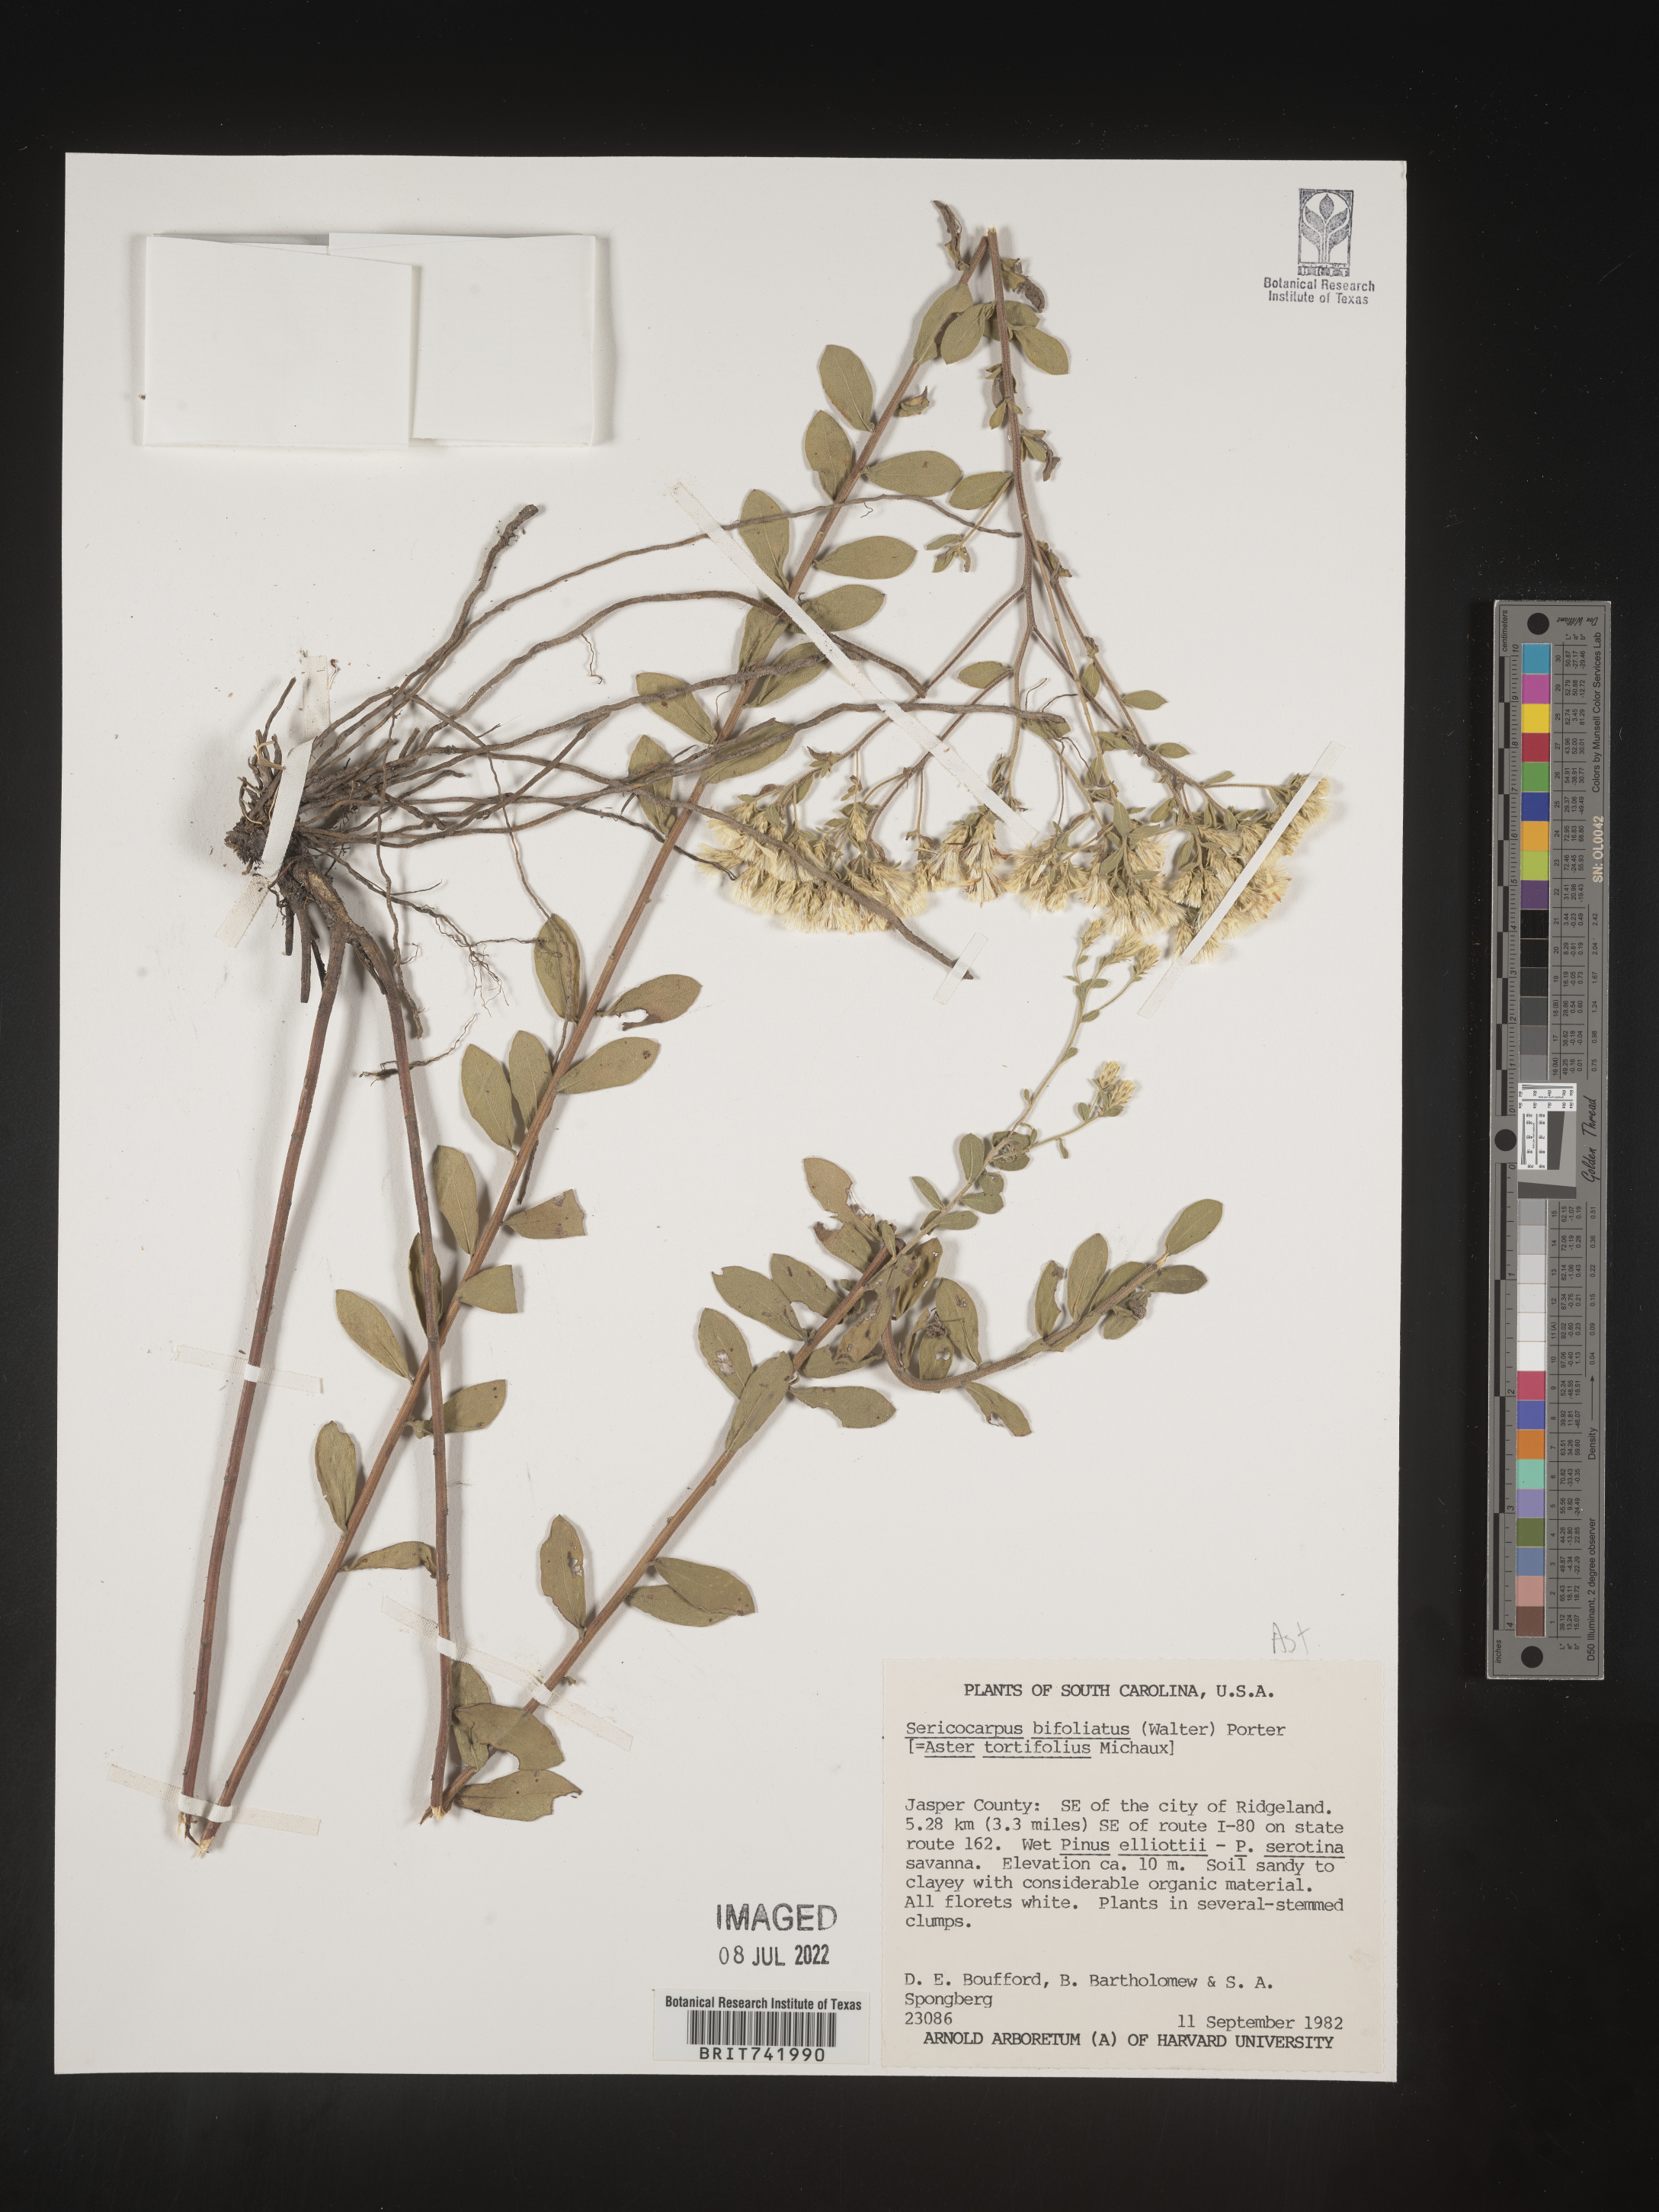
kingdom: Plantae
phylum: Tracheophyta
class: Magnoliopsida
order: Asterales
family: Asteraceae
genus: Sericocarpus
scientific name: Sericocarpus tortifolius
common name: Dixie aster
